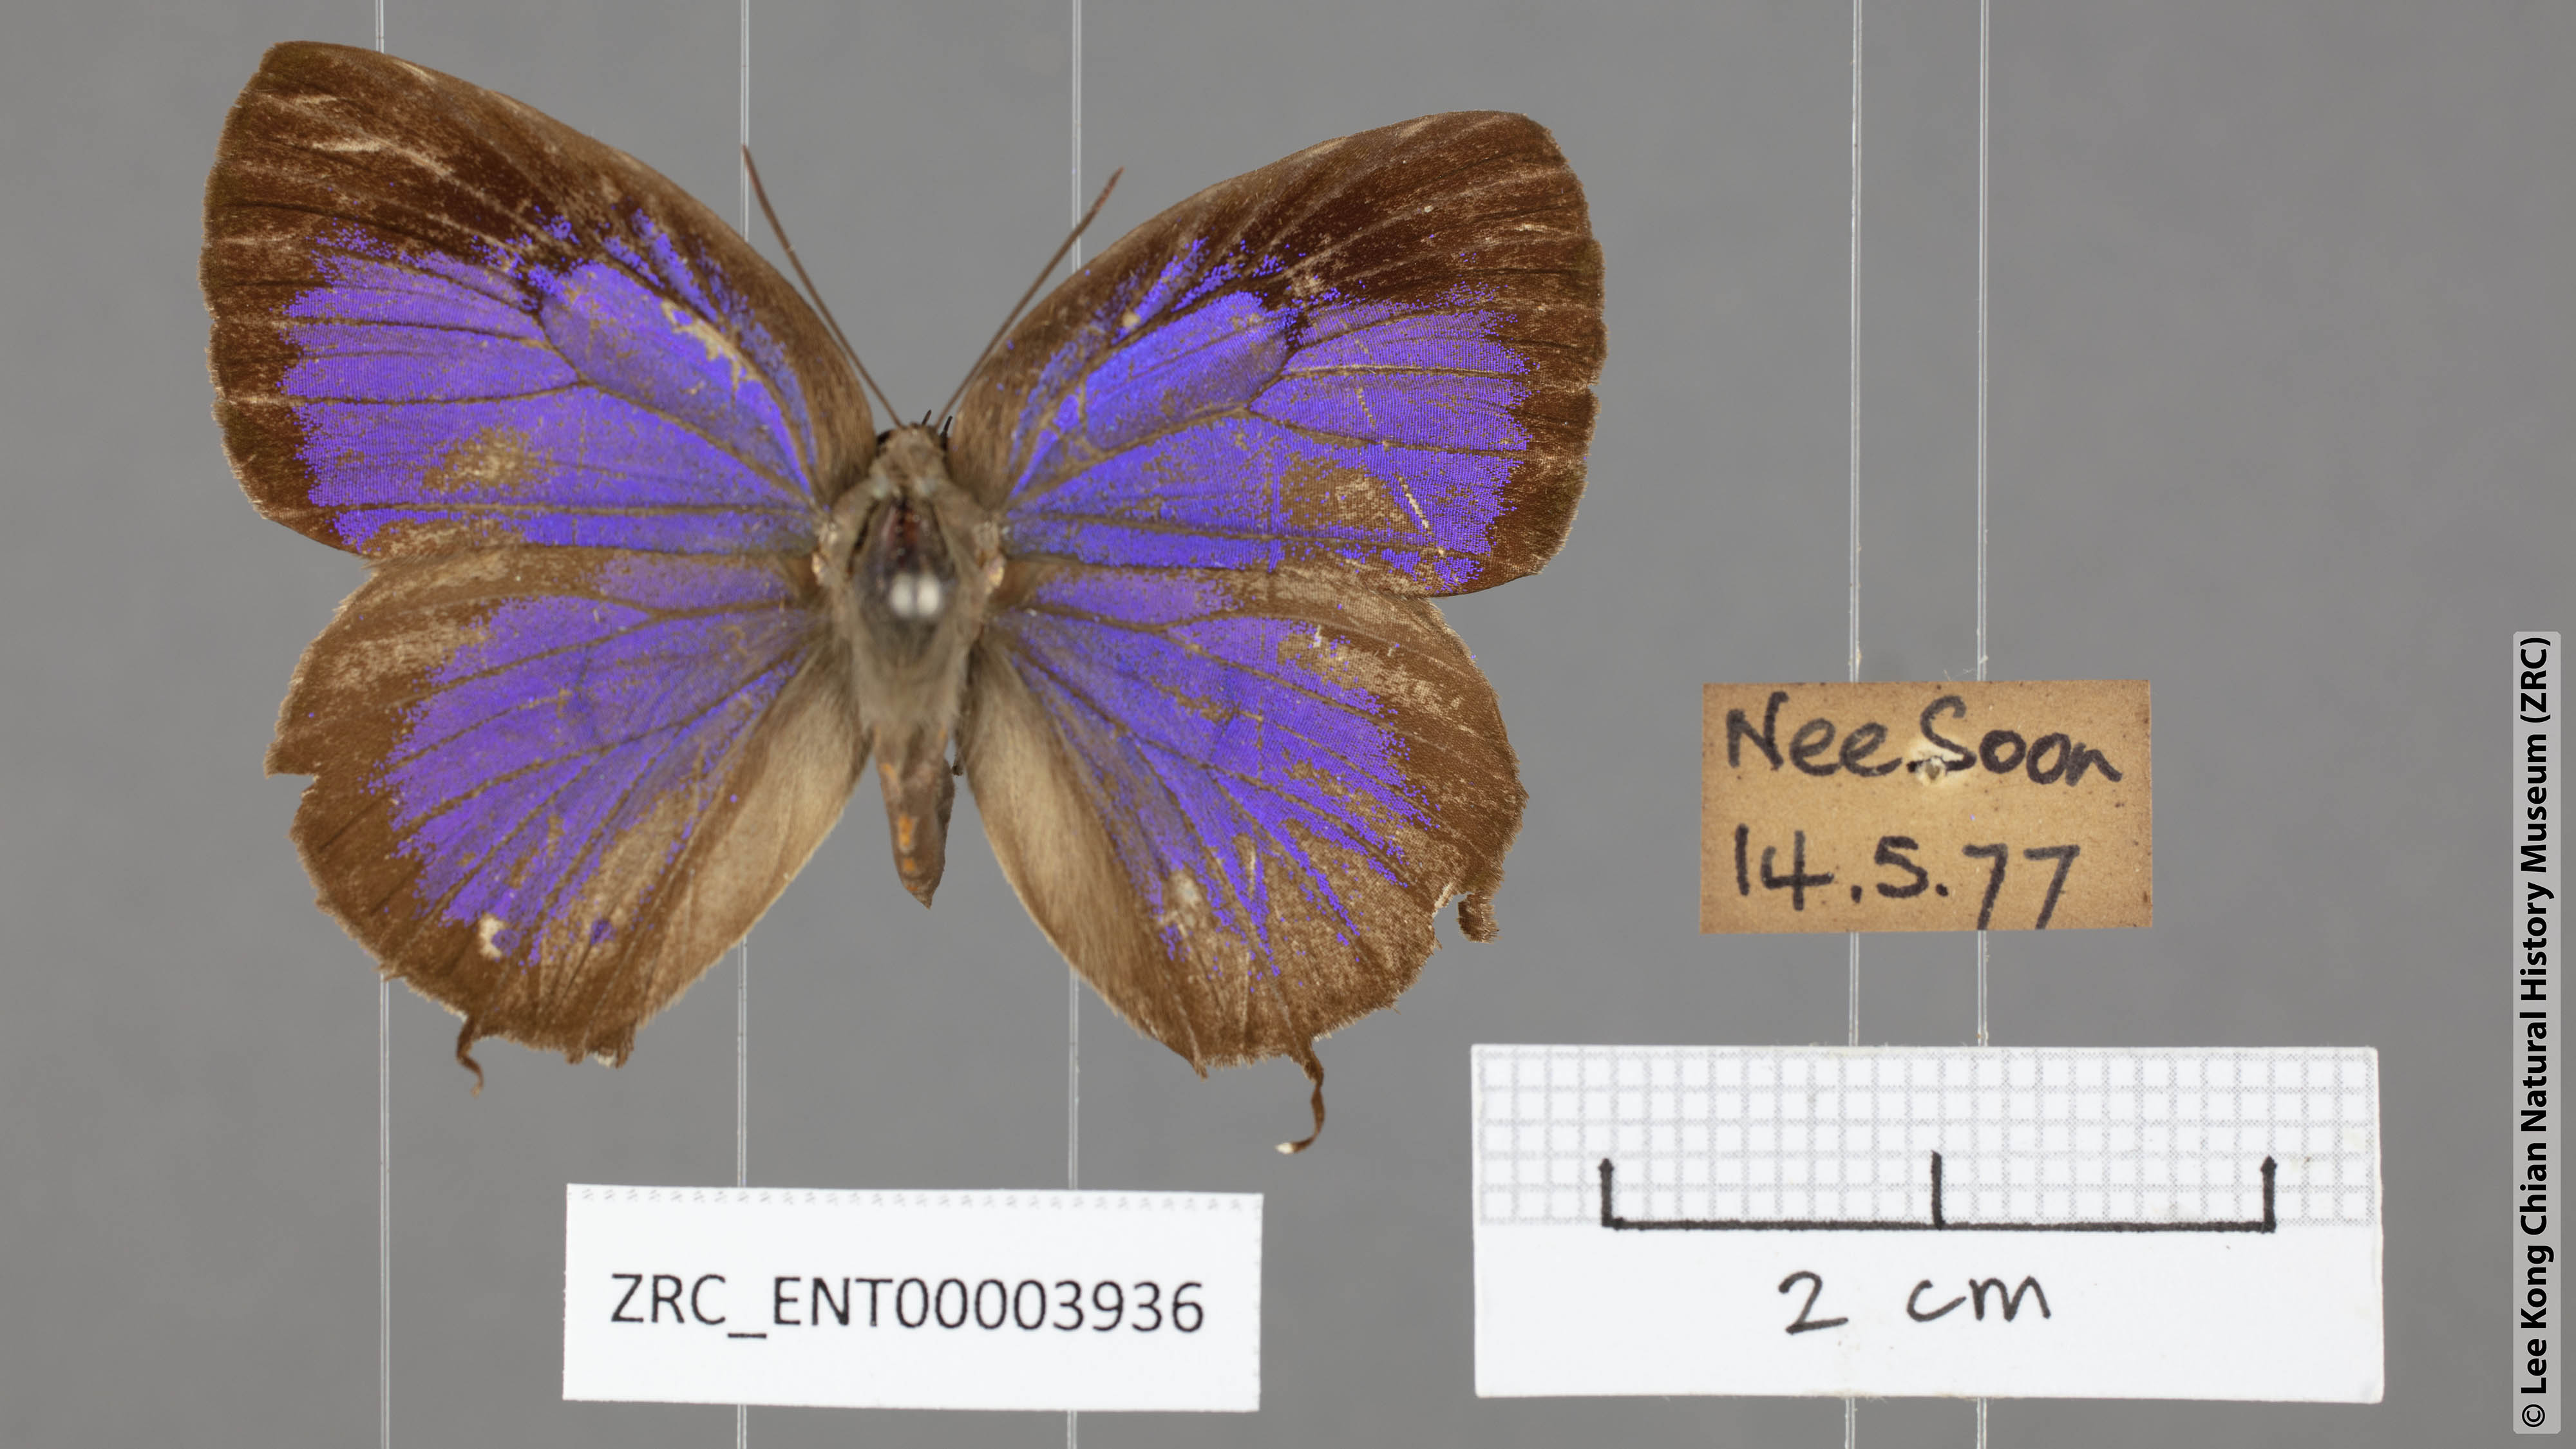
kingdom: Animalia
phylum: Arthropoda
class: Insecta
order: Lepidoptera
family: Lycaenidae
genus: Arhopala
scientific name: Arhopala eumolphus
